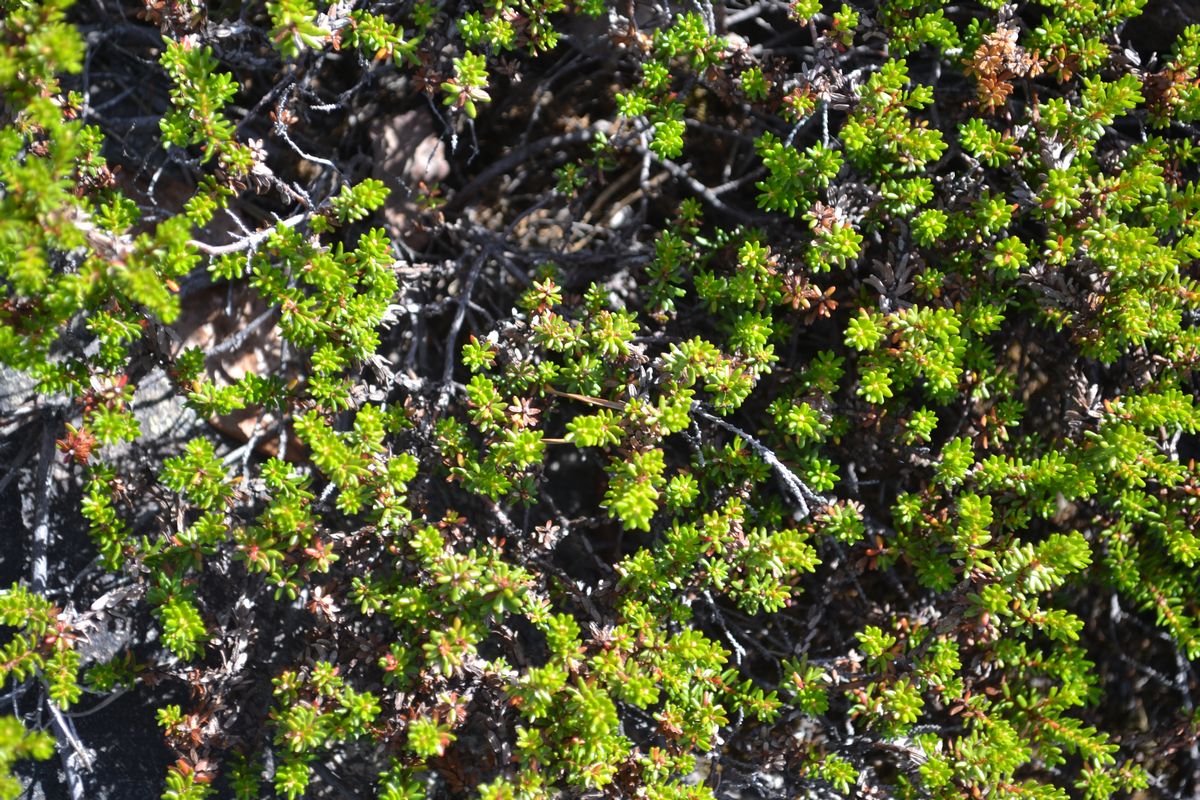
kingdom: Plantae
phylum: Tracheophyta
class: Magnoliopsida
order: Ericales
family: Ericaceae
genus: Empetrum
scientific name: Empetrum hermaphroditum
